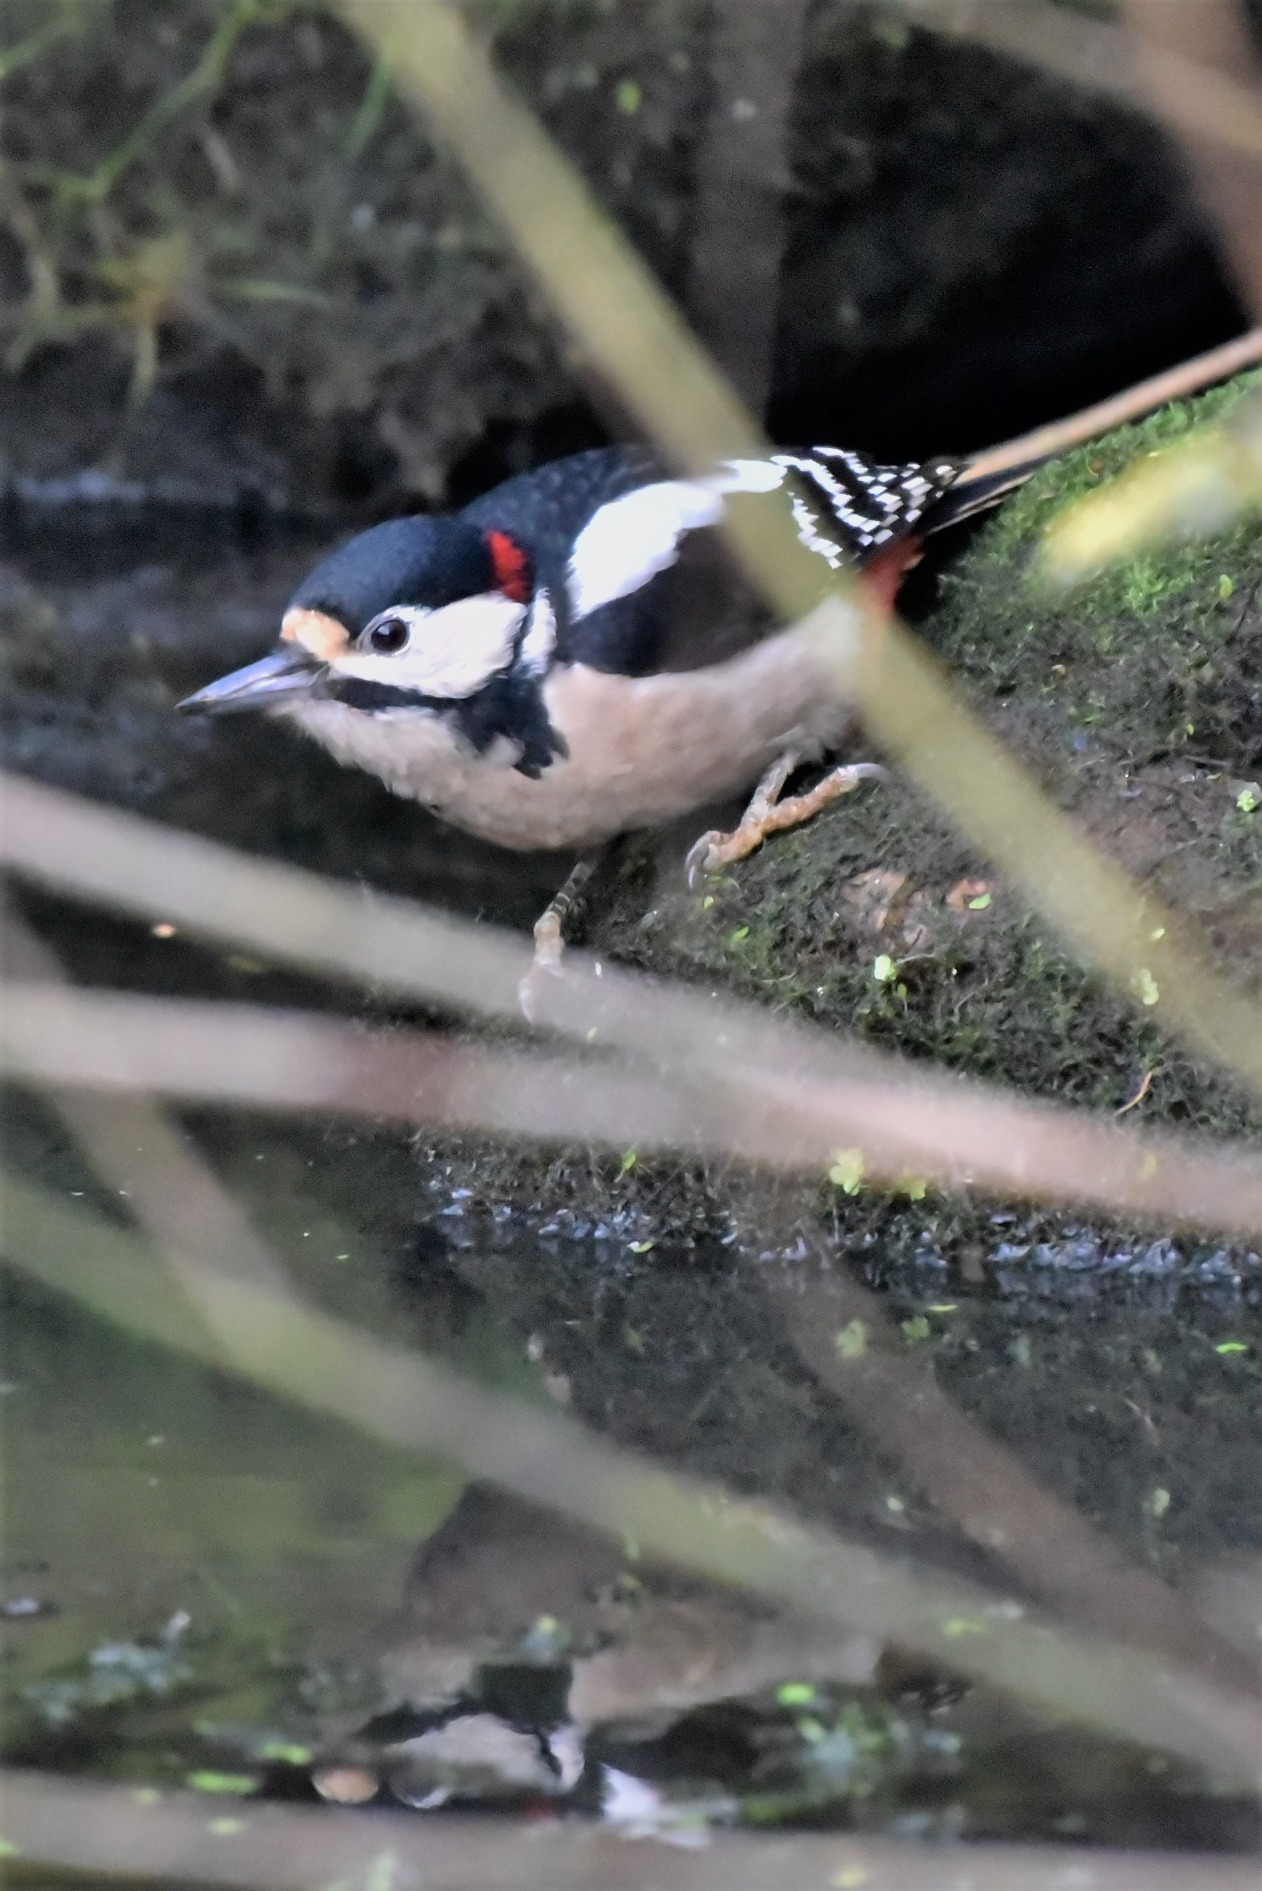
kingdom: Animalia
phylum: Chordata
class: Aves
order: Piciformes
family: Picidae
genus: Dendrocopos
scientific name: Dendrocopos major
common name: Stor flagspætte
